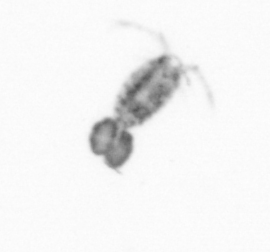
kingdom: Animalia
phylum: Arthropoda
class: Copepoda
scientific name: Copepoda
